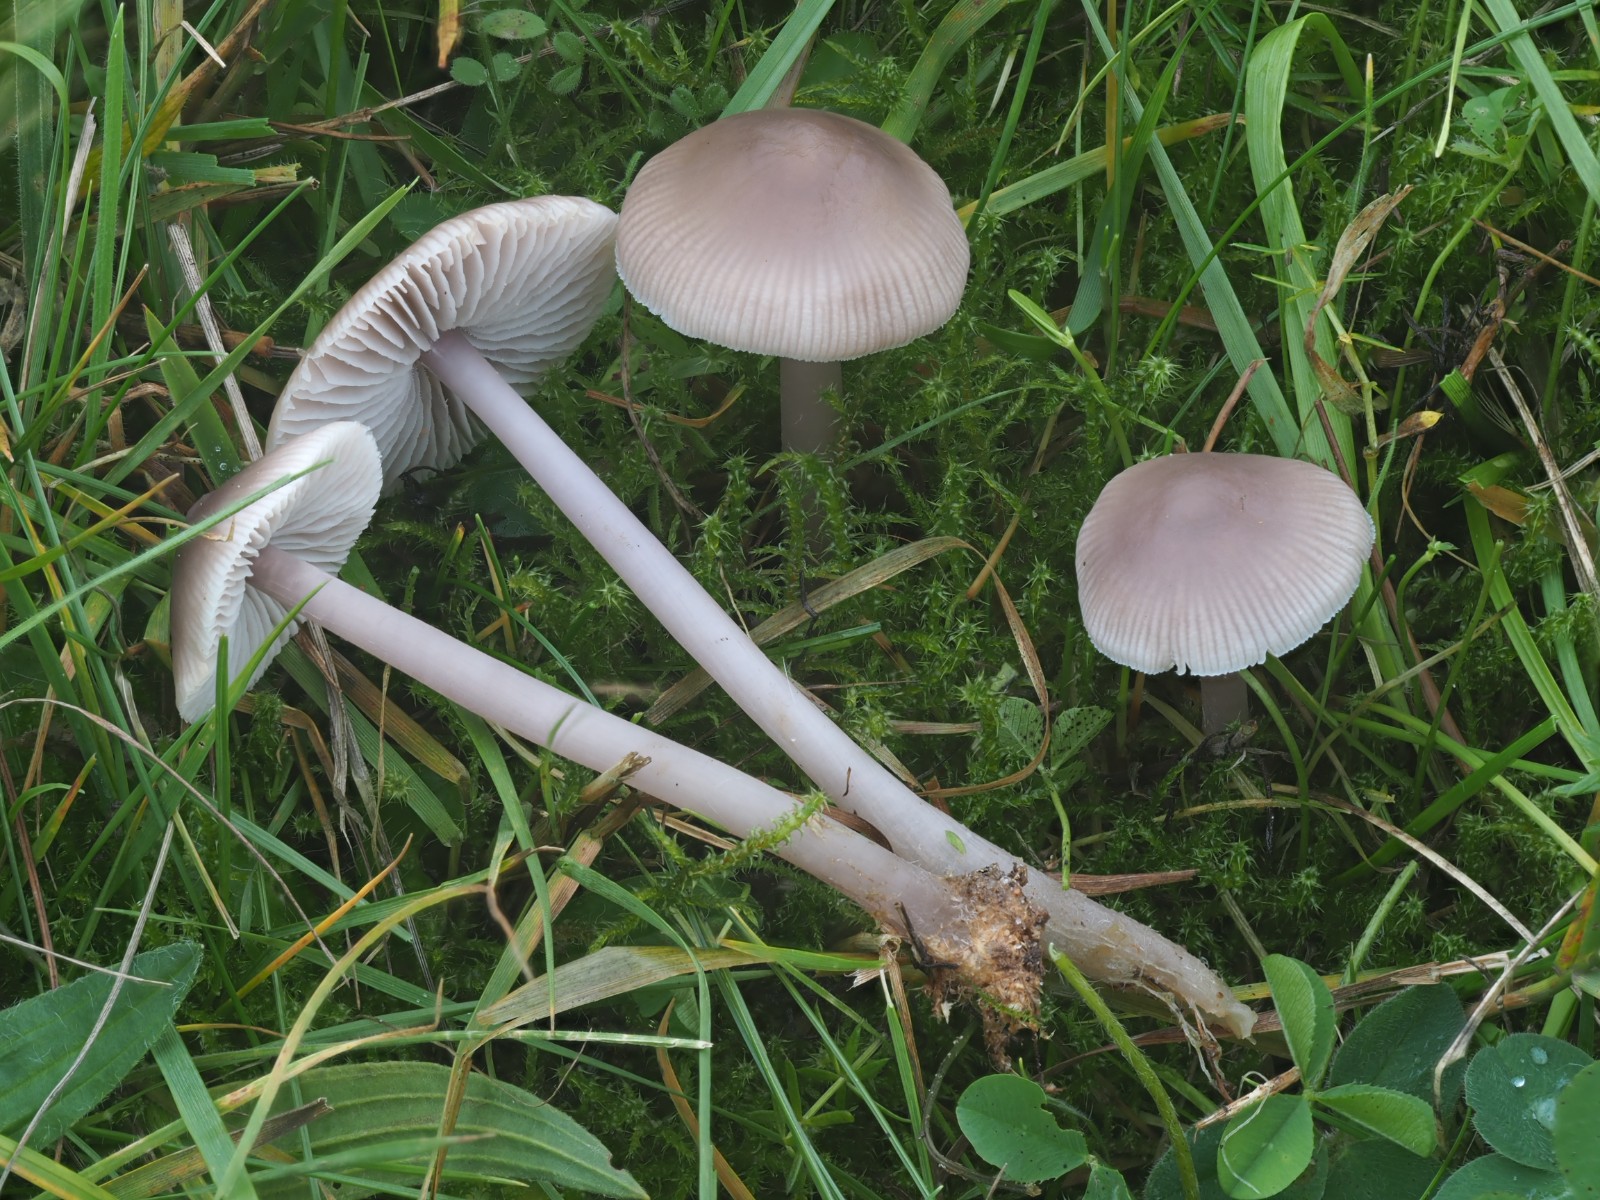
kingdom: Fungi
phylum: Basidiomycota
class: Agaricomycetes
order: Agaricales
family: Mycenaceae
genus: Mycena
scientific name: Mycena luteovariegata
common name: lillagul huesvamp
